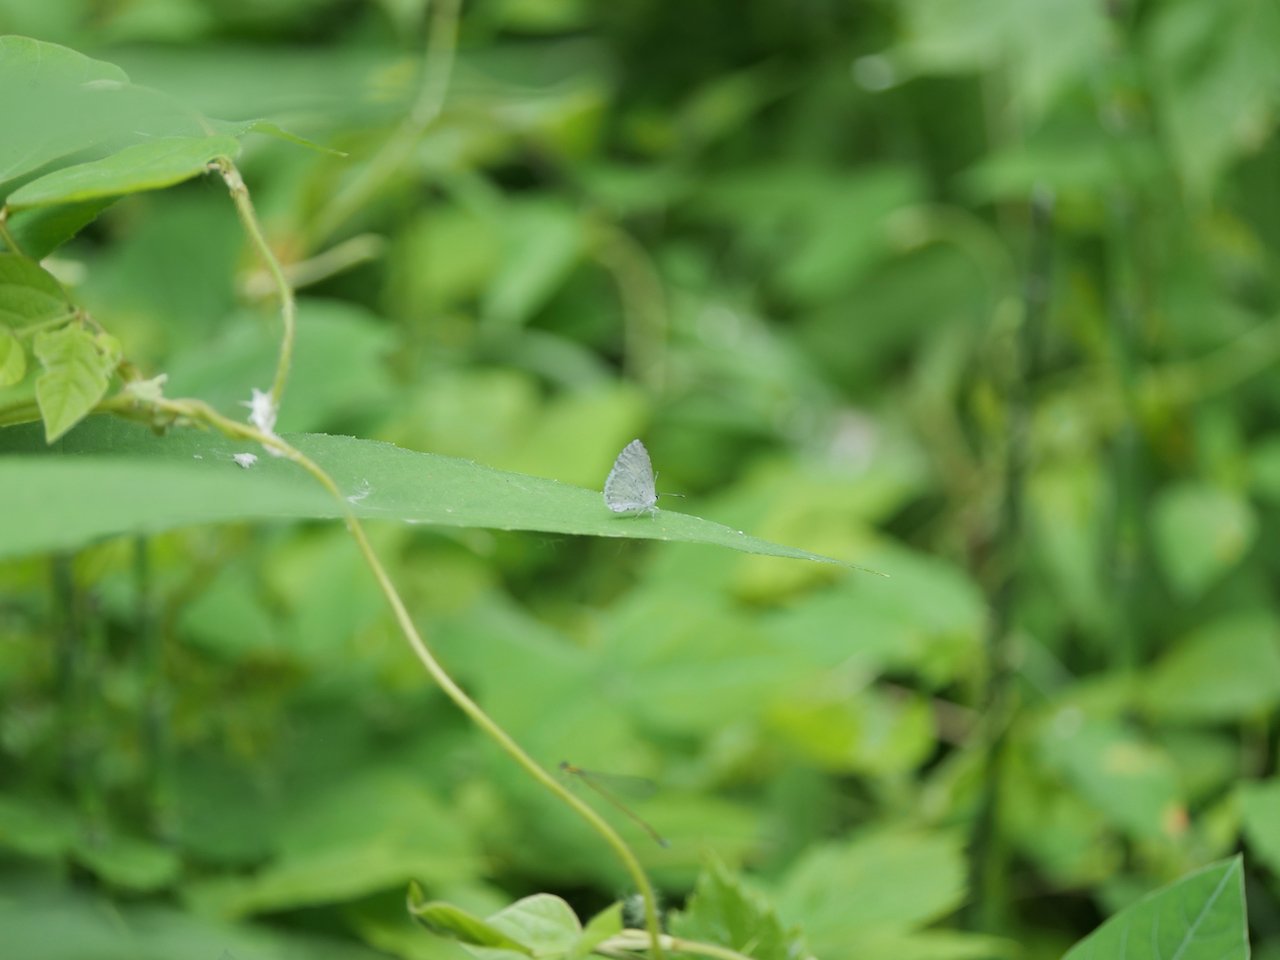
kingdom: Animalia
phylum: Arthropoda
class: Insecta
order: Lepidoptera
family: Lycaenidae
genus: Cyaniris
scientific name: Cyaniris neglecta
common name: Summer Azure
